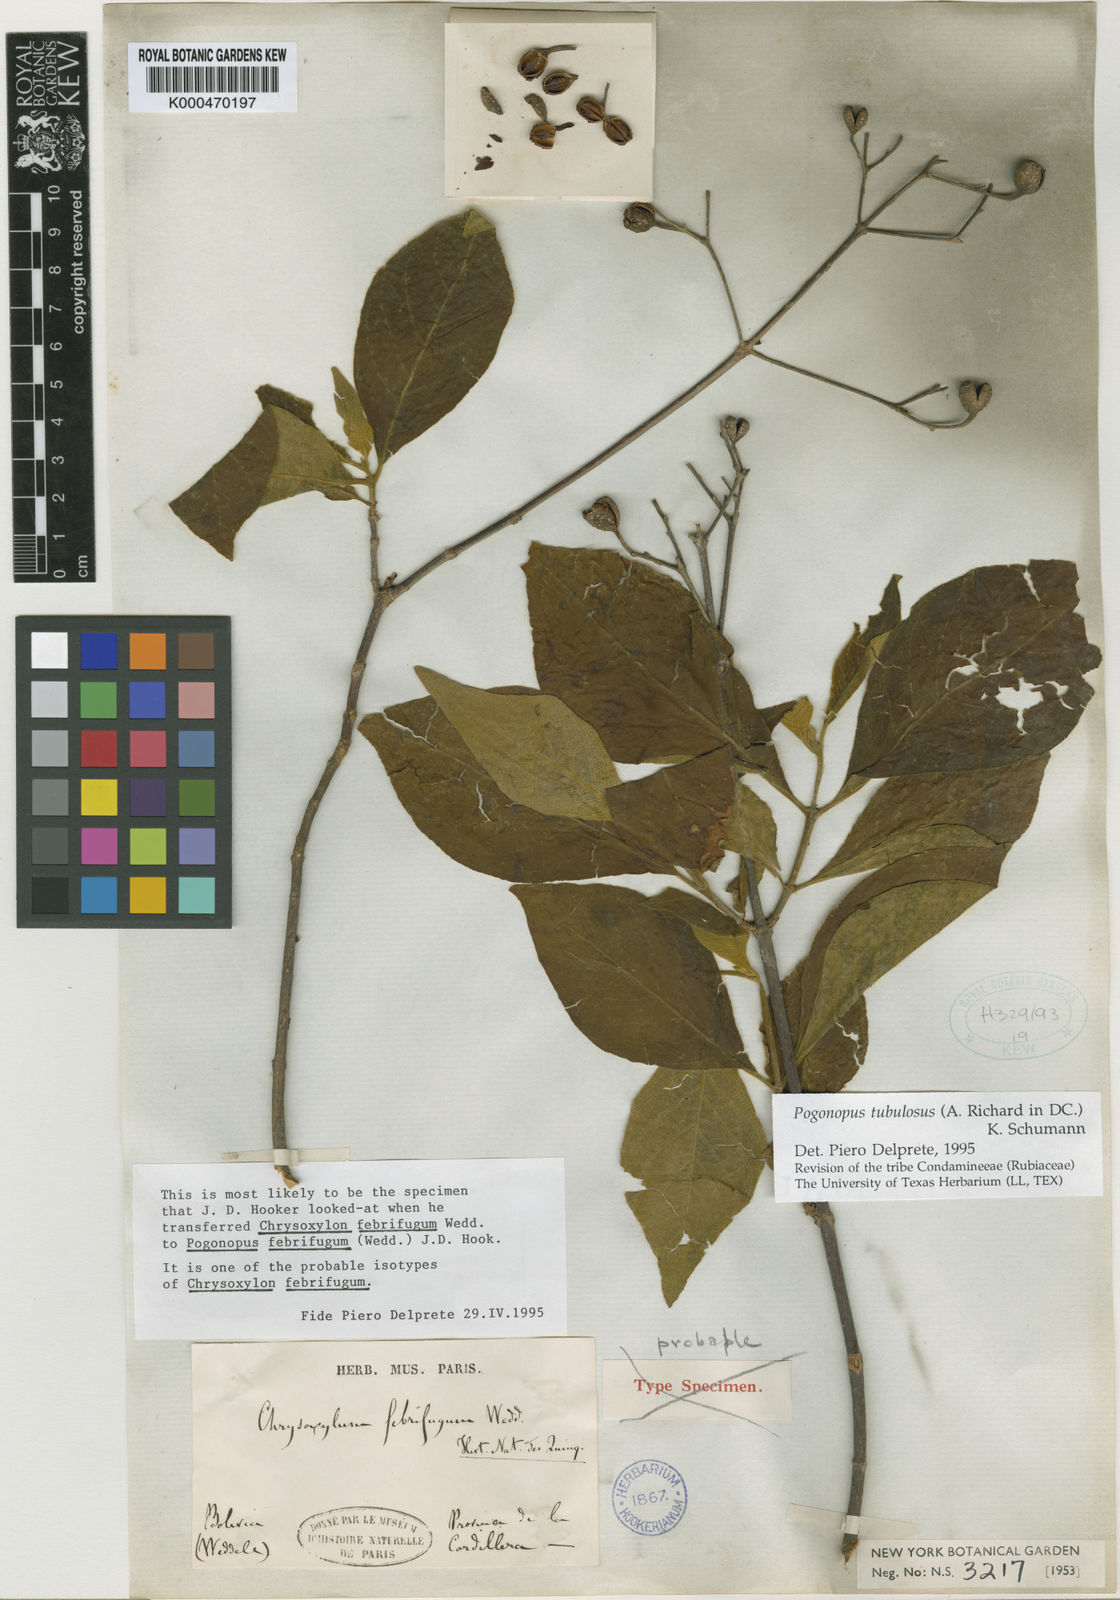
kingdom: Plantae
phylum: Tracheophyta
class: Magnoliopsida
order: Gentianales
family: Rubiaceae
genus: Pogonopus
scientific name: Pogonopus tubulosus
